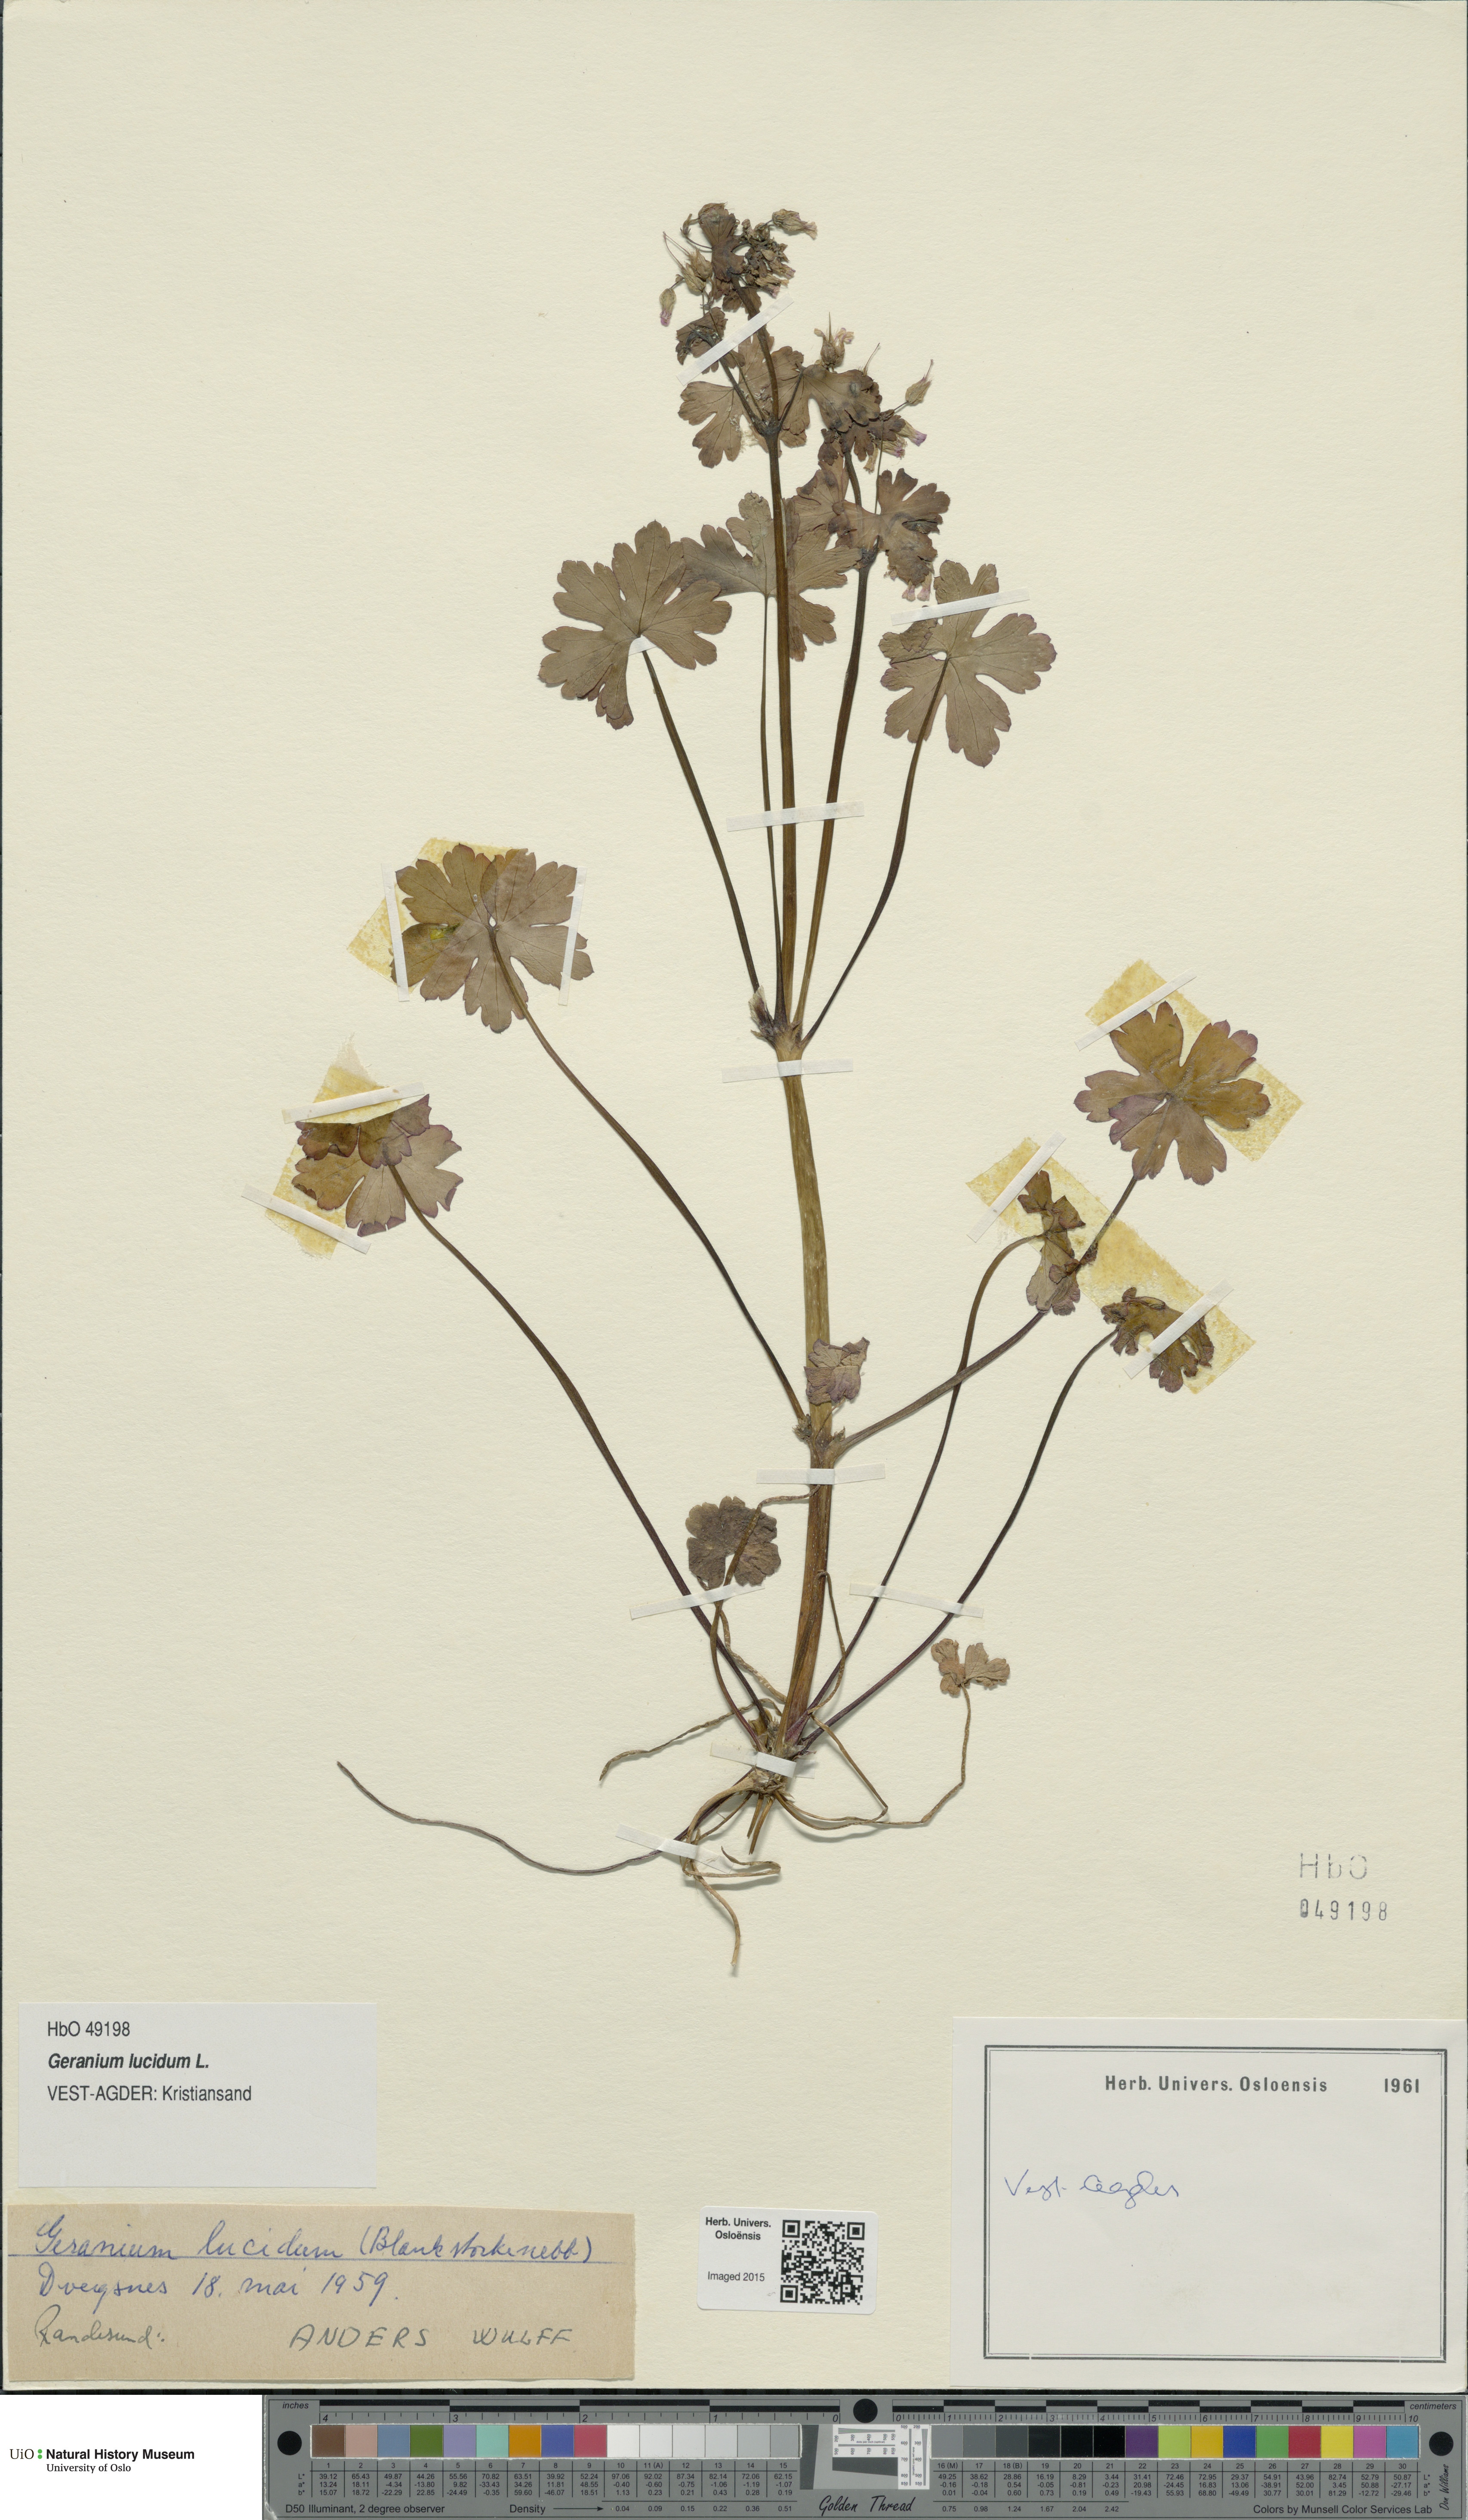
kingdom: Plantae
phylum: Tracheophyta
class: Magnoliopsida
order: Geraniales
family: Geraniaceae
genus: Geranium
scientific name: Geranium lucidum
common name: Shining crane's-bill
